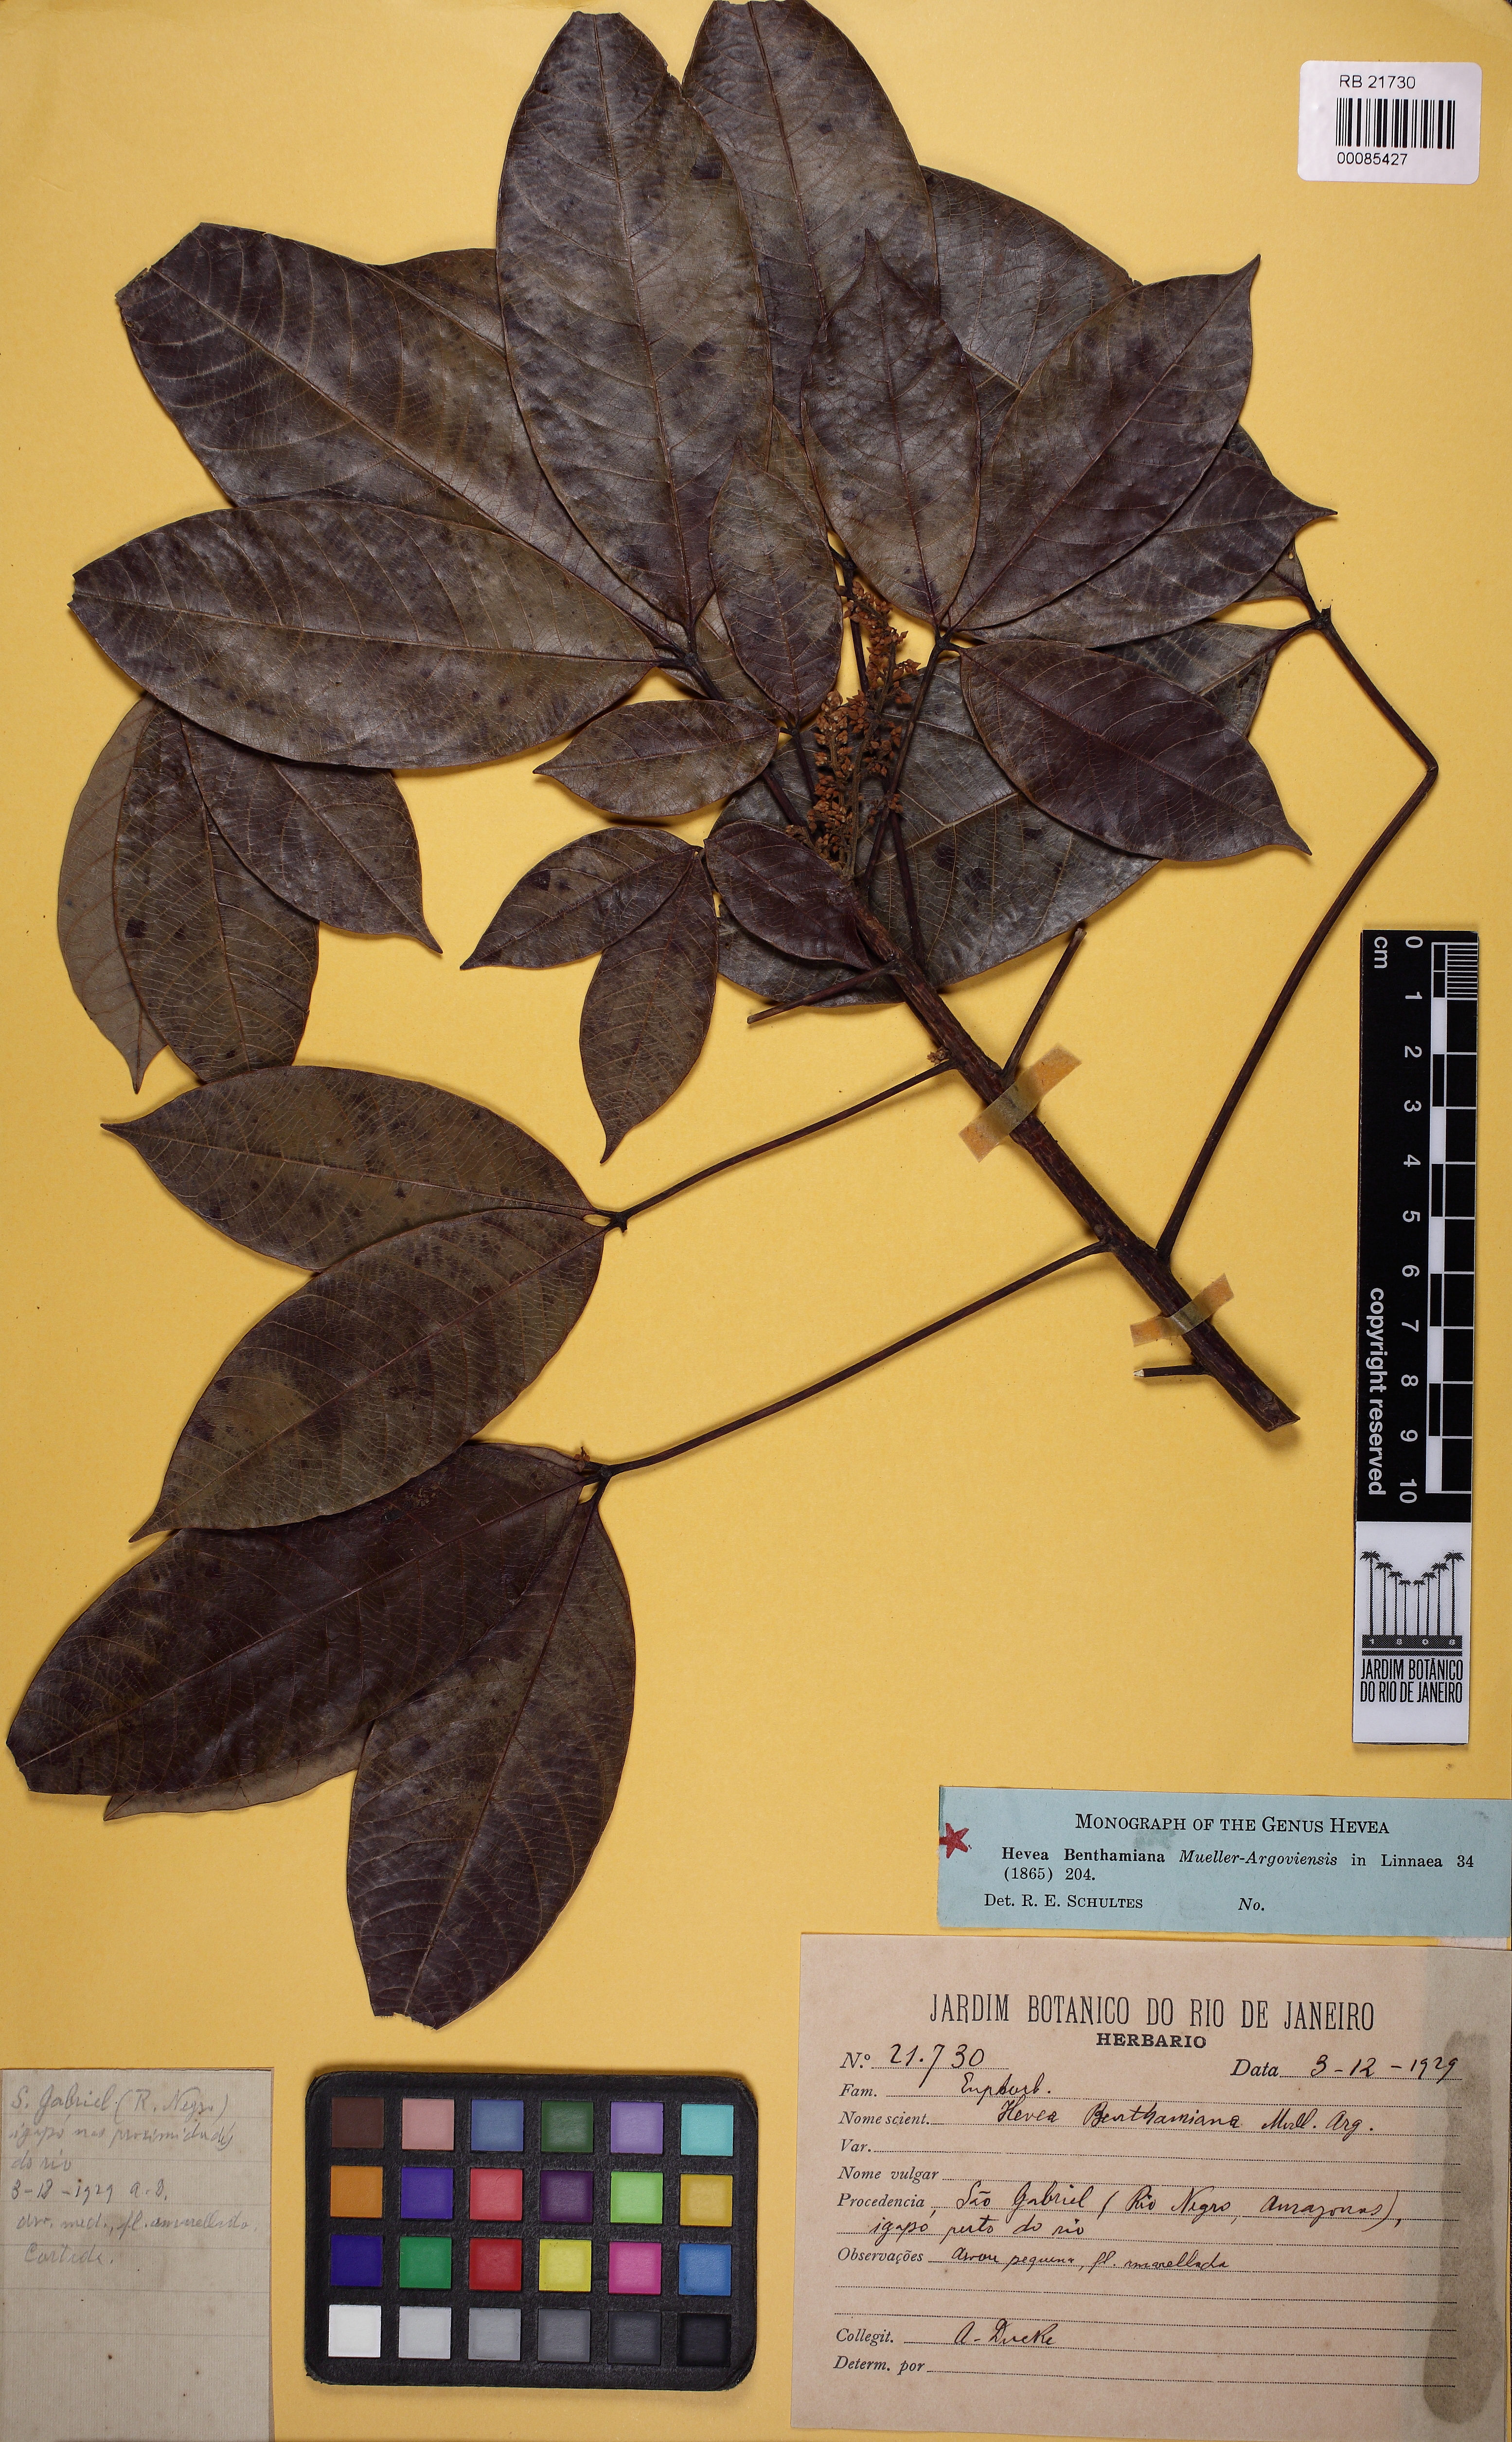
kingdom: Plantae
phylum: Tracheophyta
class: Magnoliopsida
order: Malpighiales
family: Euphorbiaceae
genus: Hevea
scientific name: Hevea benthamiana
